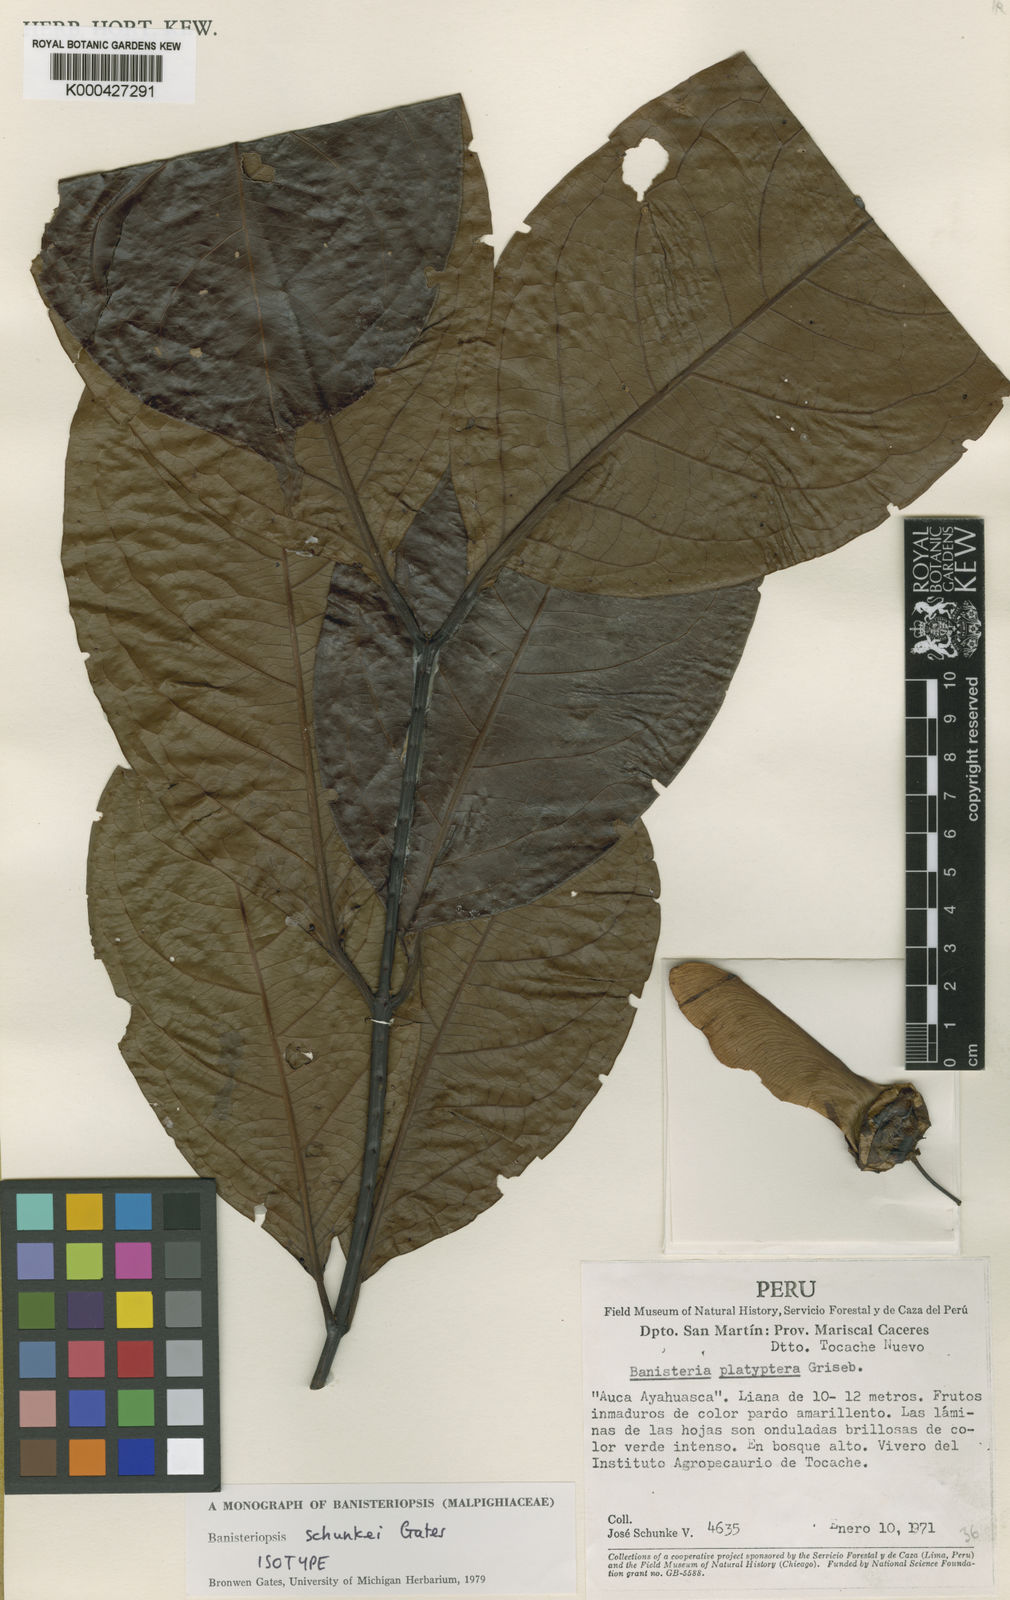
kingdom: Plantae
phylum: Tracheophyta
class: Magnoliopsida
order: Malpighiales
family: Malpighiaceae
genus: Diplopterys
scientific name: Diplopterys schunkei
